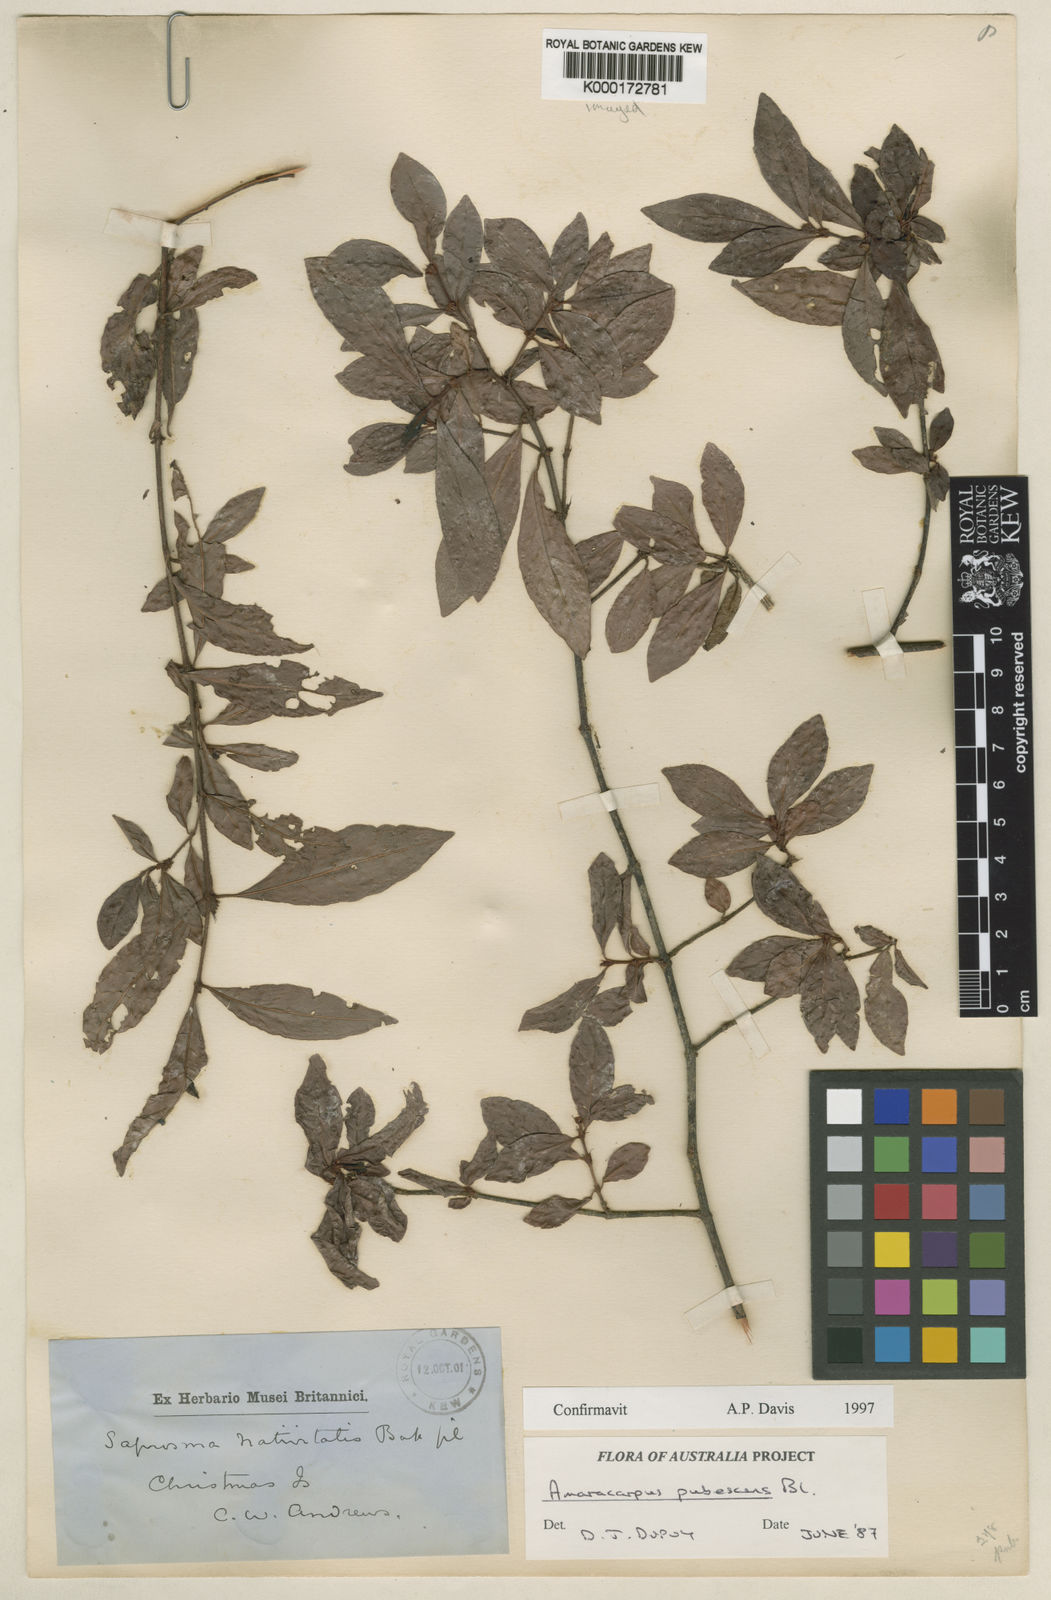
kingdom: Plantae
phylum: Tracheophyta
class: Magnoliopsida
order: Gentianales
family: Rubiaceae
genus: Amaracarpus
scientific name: Amaracarpus pubescens
